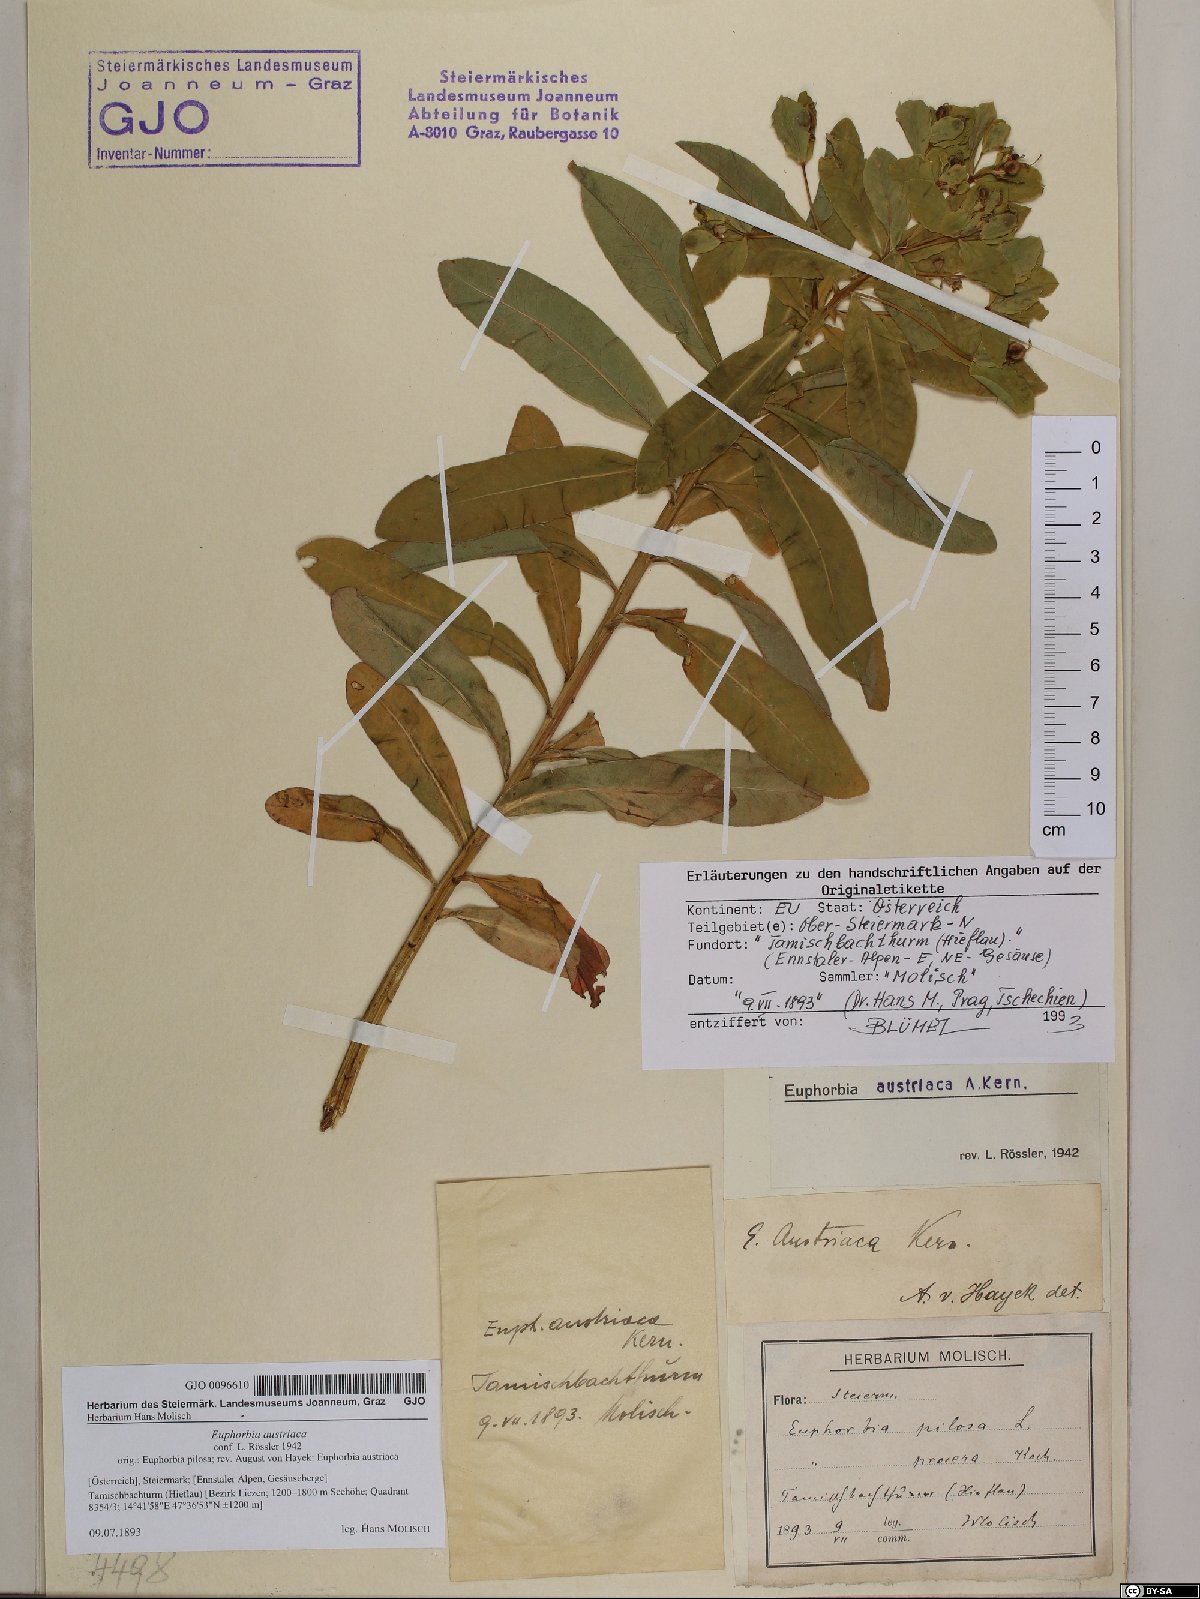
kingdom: Plantae
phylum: Tracheophyta
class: Magnoliopsida
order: Malpighiales
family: Euphorbiaceae
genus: Euphorbia
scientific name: Euphorbia austriaca
